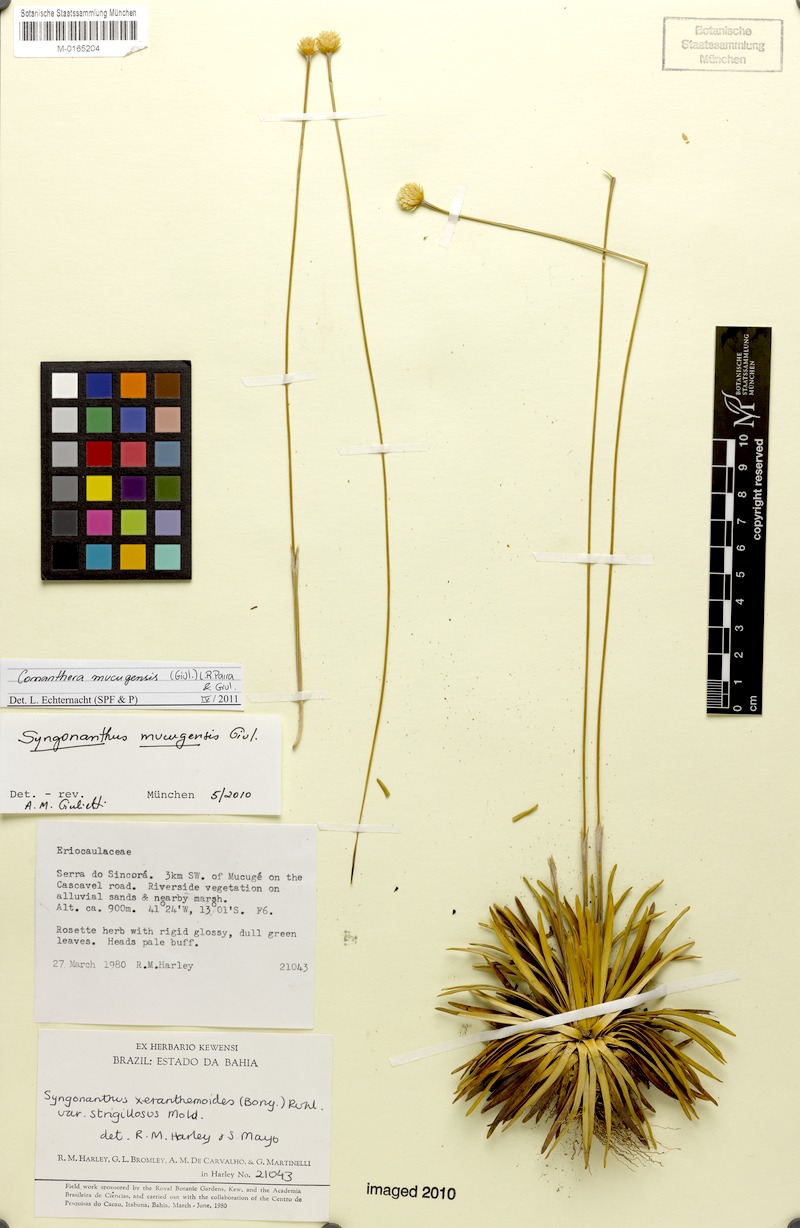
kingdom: Plantae
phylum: Tracheophyta
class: Liliopsida
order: Poales
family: Eriocaulaceae
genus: Comanthera
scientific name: Comanthera mucugensis
